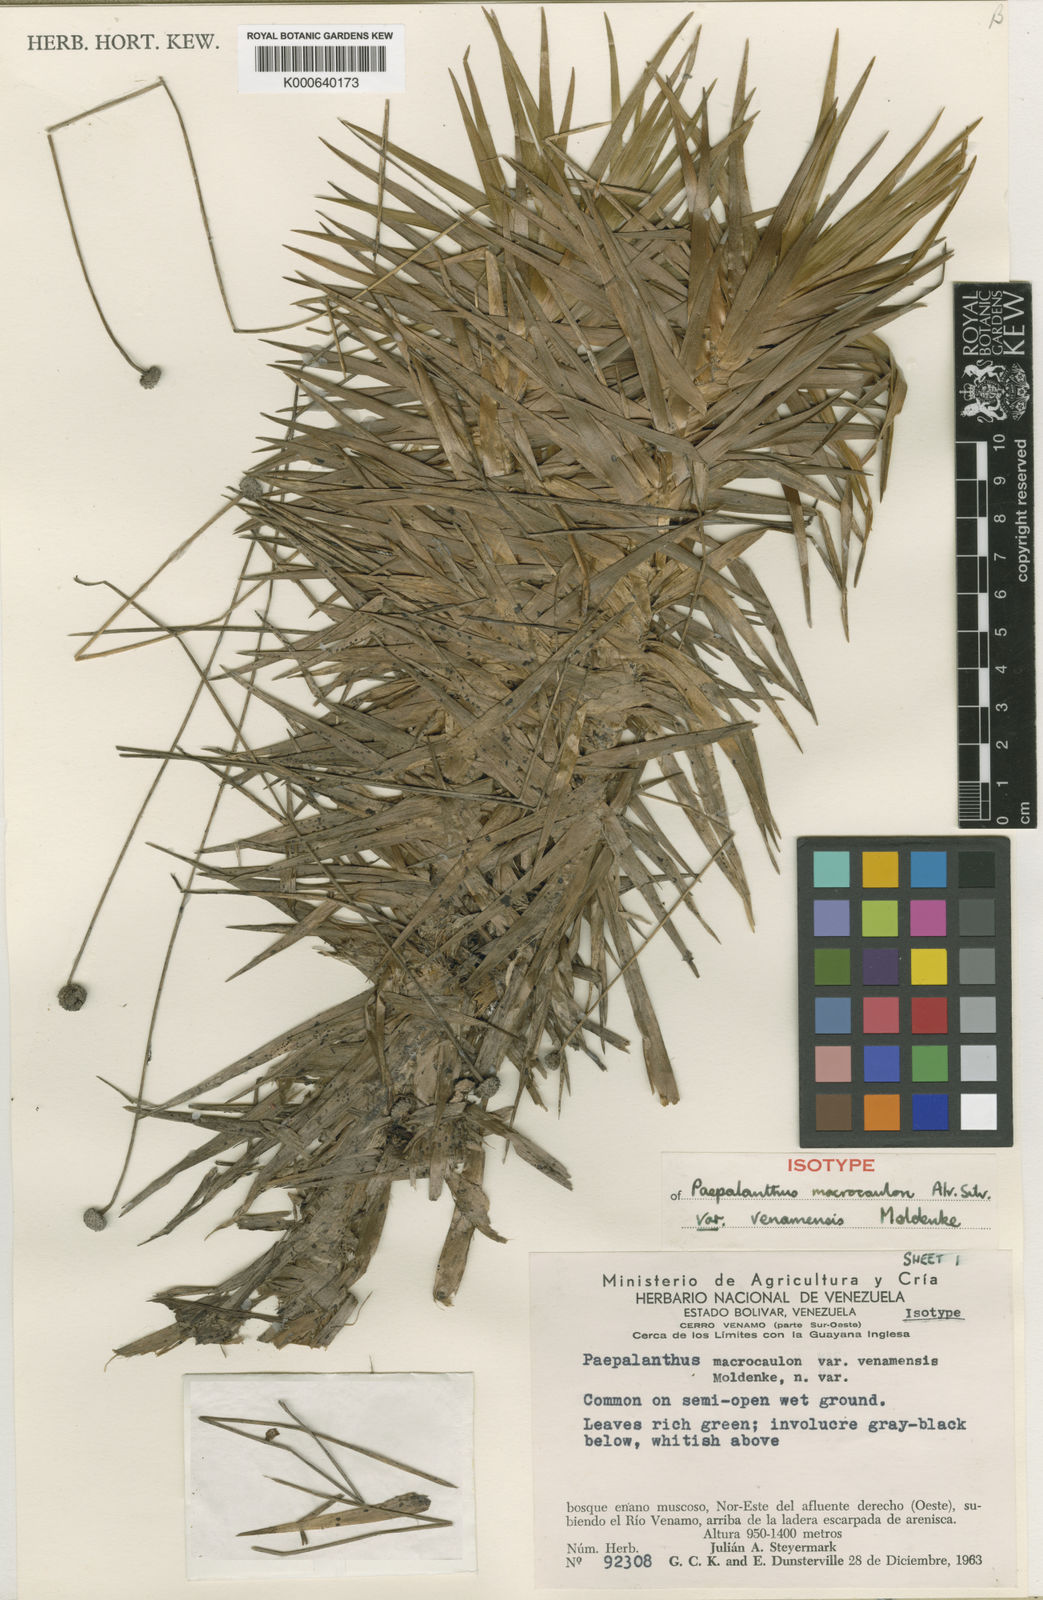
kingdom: Plantae
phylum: Tracheophyta
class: Liliopsida
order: Poales
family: Eriocaulaceae
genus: Paepalanthus
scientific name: Paepalanthus schomburgkii
